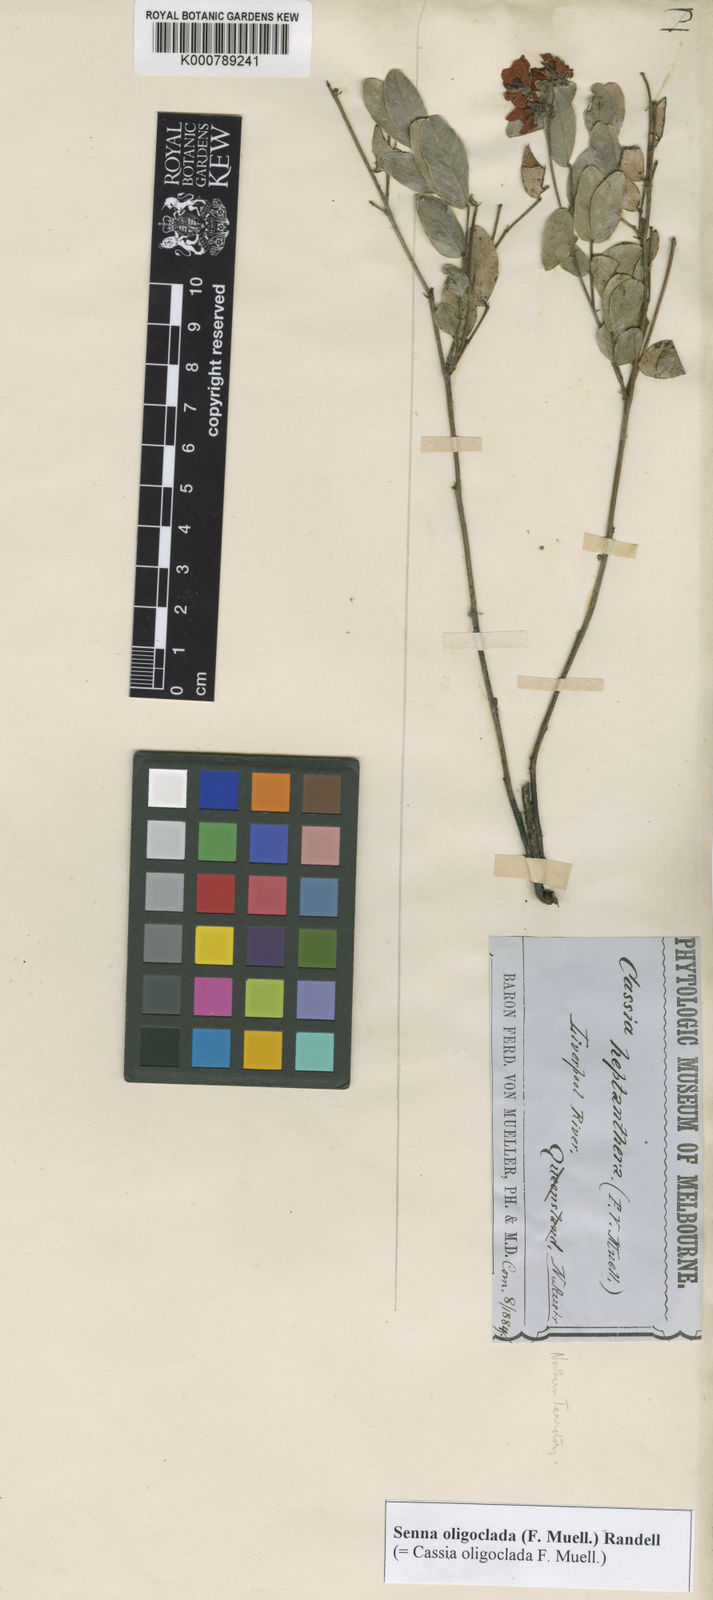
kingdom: Plantae
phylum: Tracheophyta
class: Magnoliopsida
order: Fabales
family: Fabaceae
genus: Senna
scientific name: Senna oligoclada
